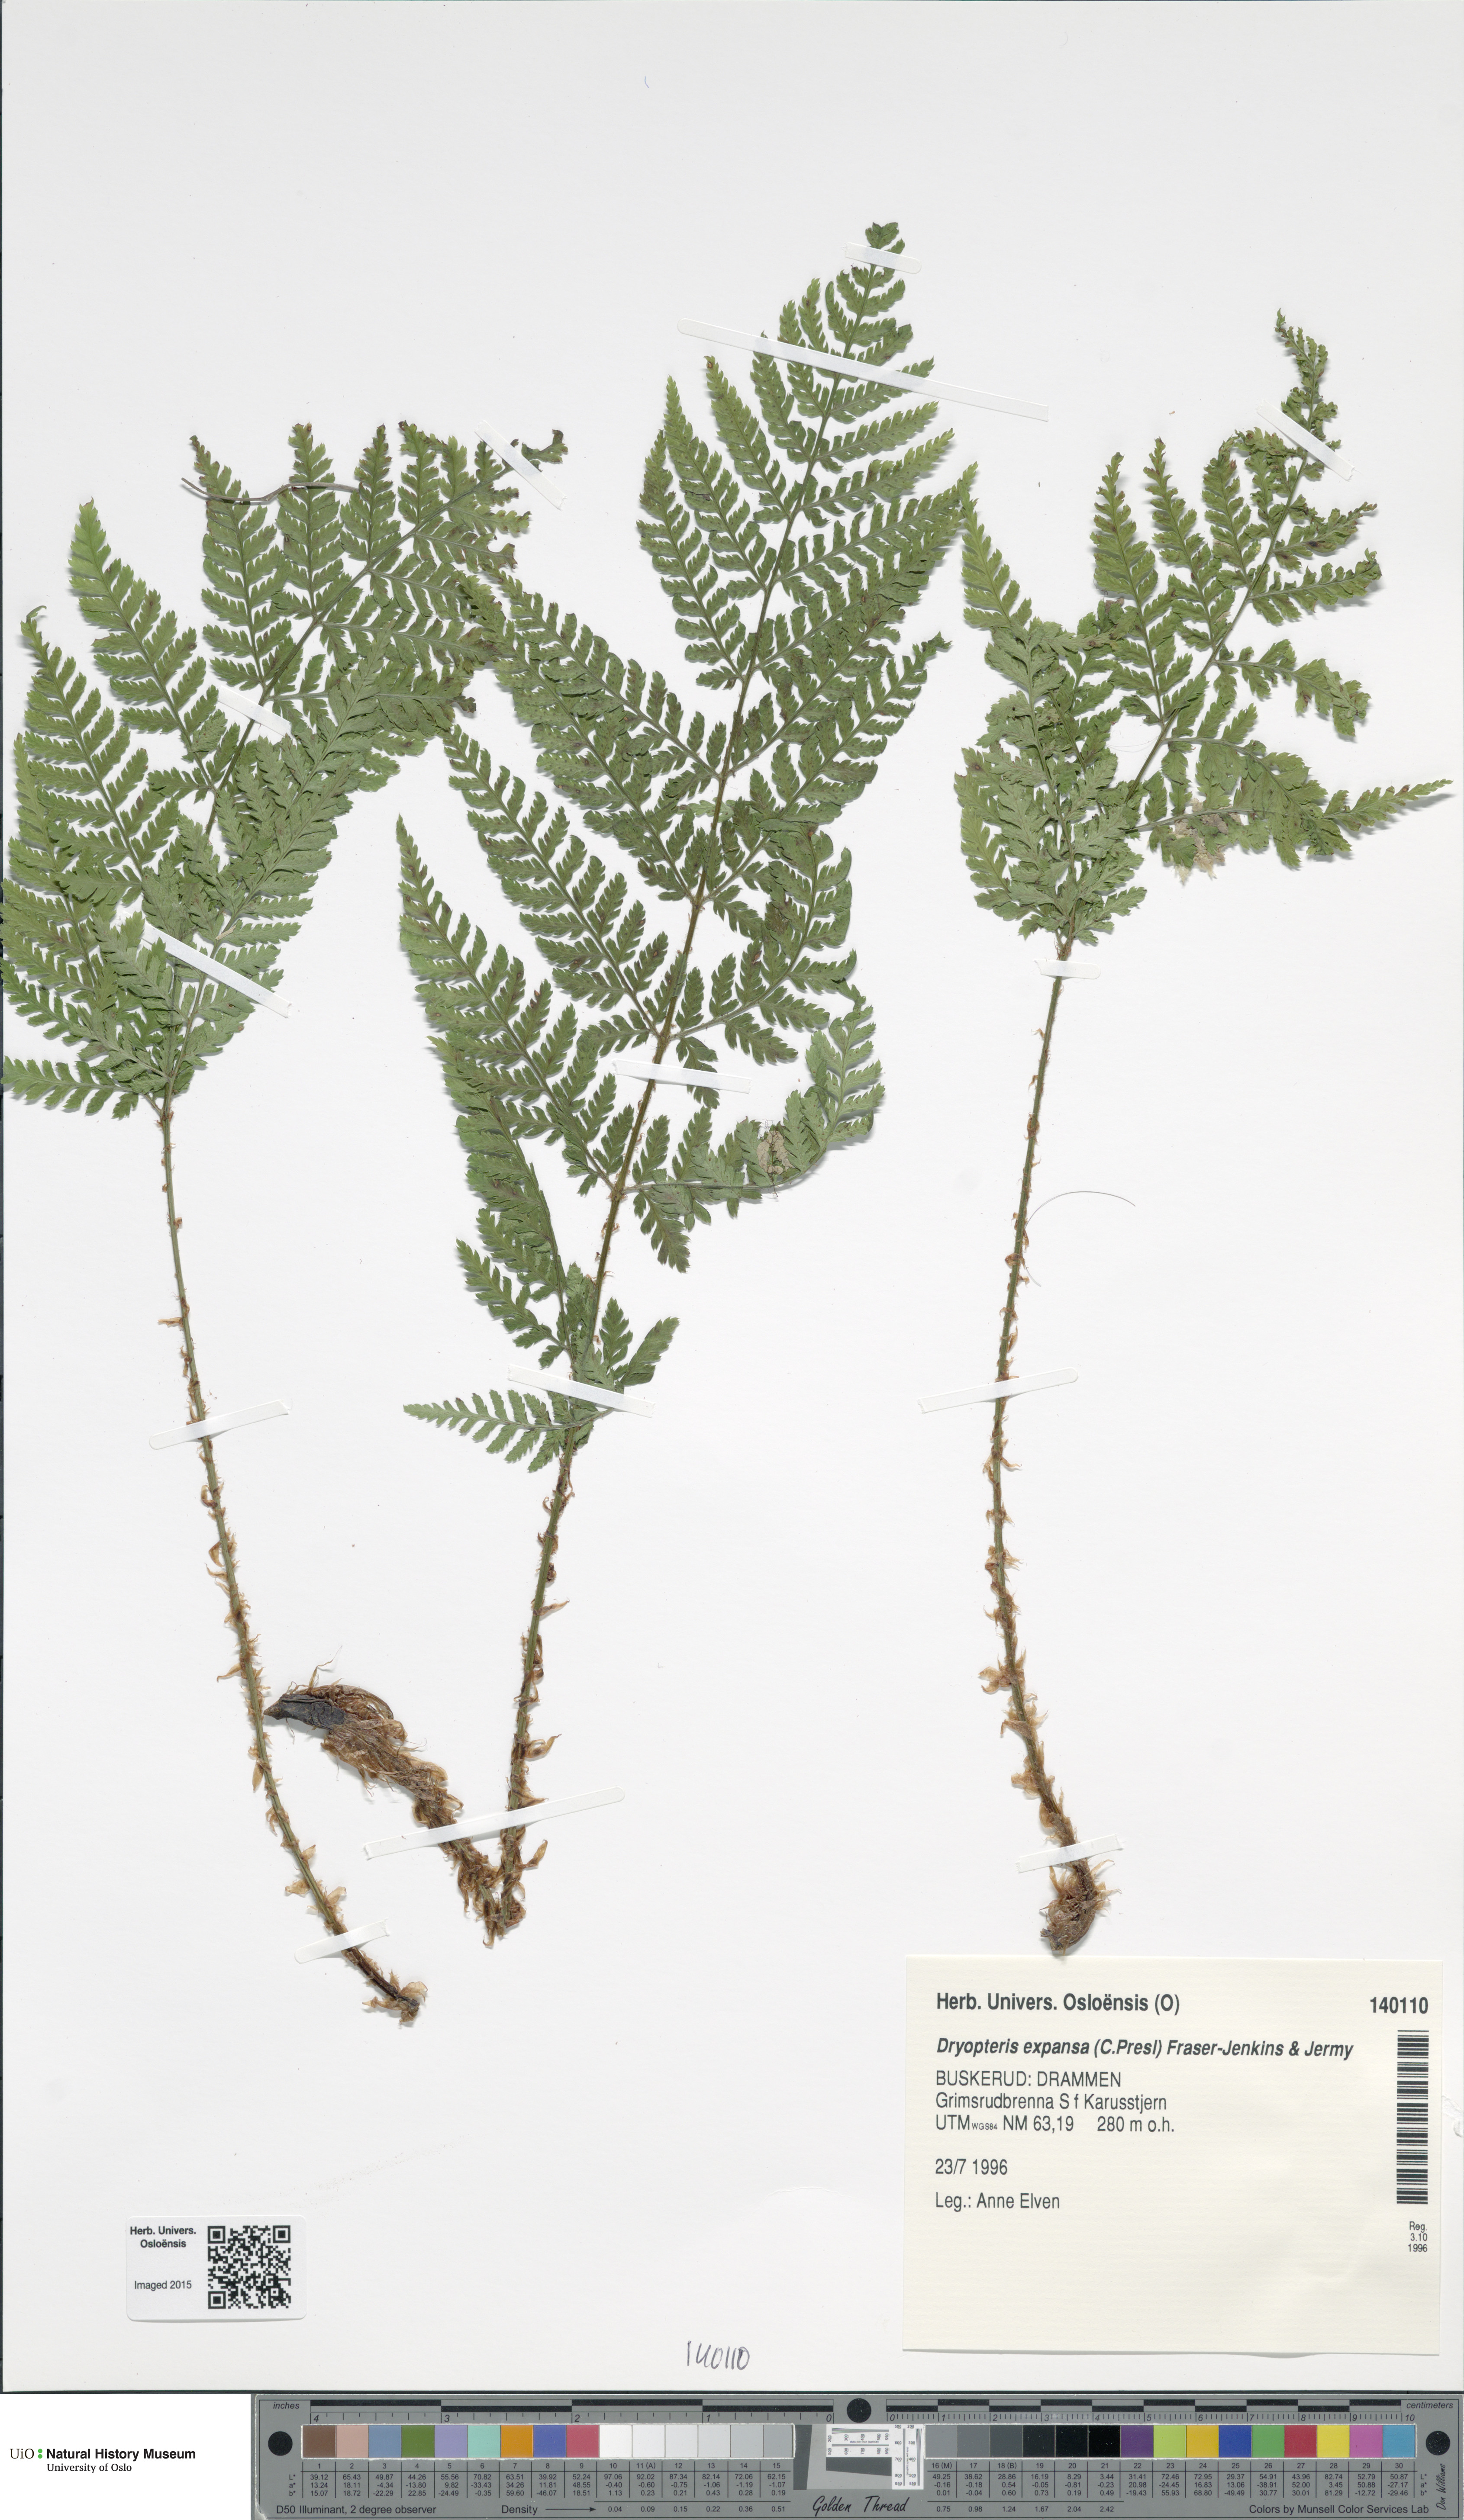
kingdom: Plantae
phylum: Tracheophyta
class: Polypodiopsida
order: Polypodiales
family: Dryopteridaceae
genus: Dryopteris
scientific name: Dryopteris expansa
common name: Northern buckler fern
